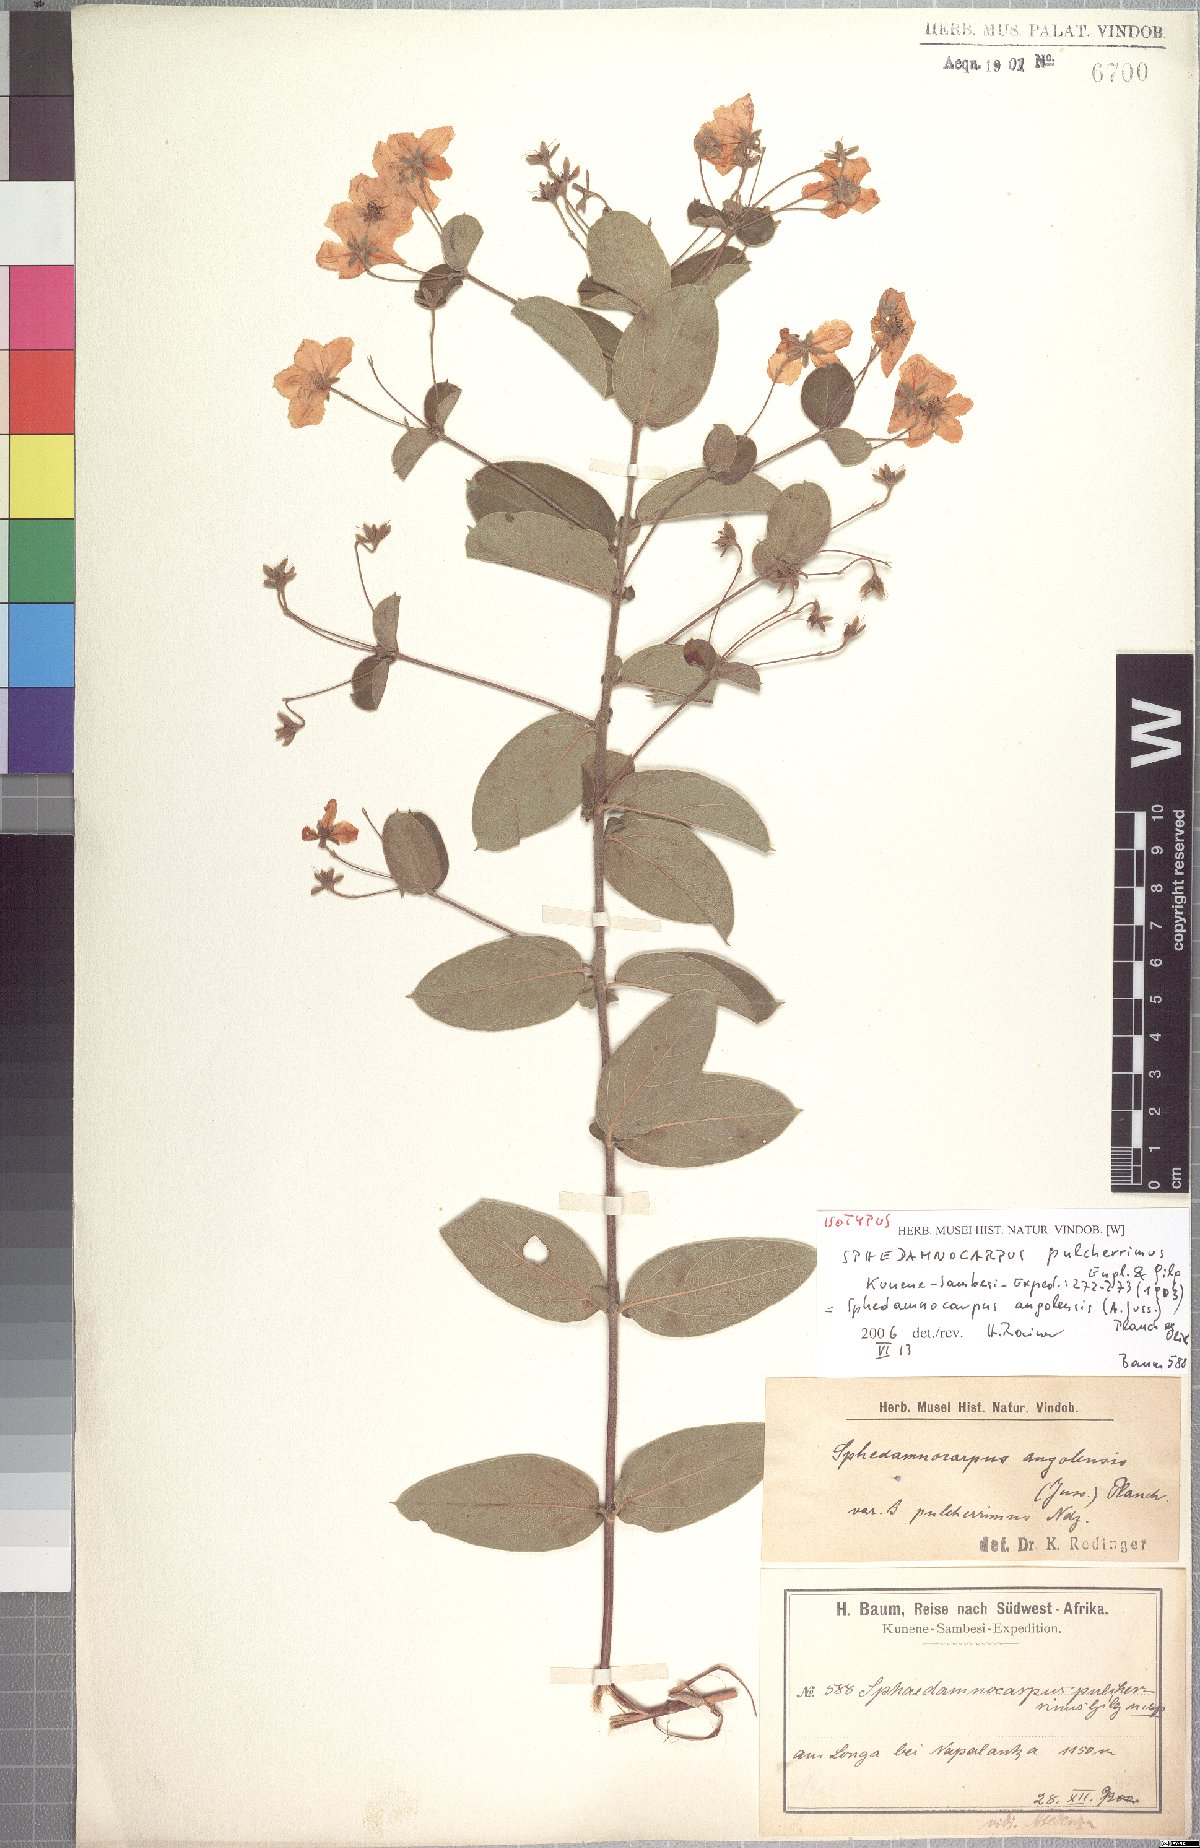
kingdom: Plantae
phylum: Tracheophyta
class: Magnoliopsida
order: Malpighiales
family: Malpighiaceae
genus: Sphedamnocarpus
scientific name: Sphedamnocarpus pruriens
